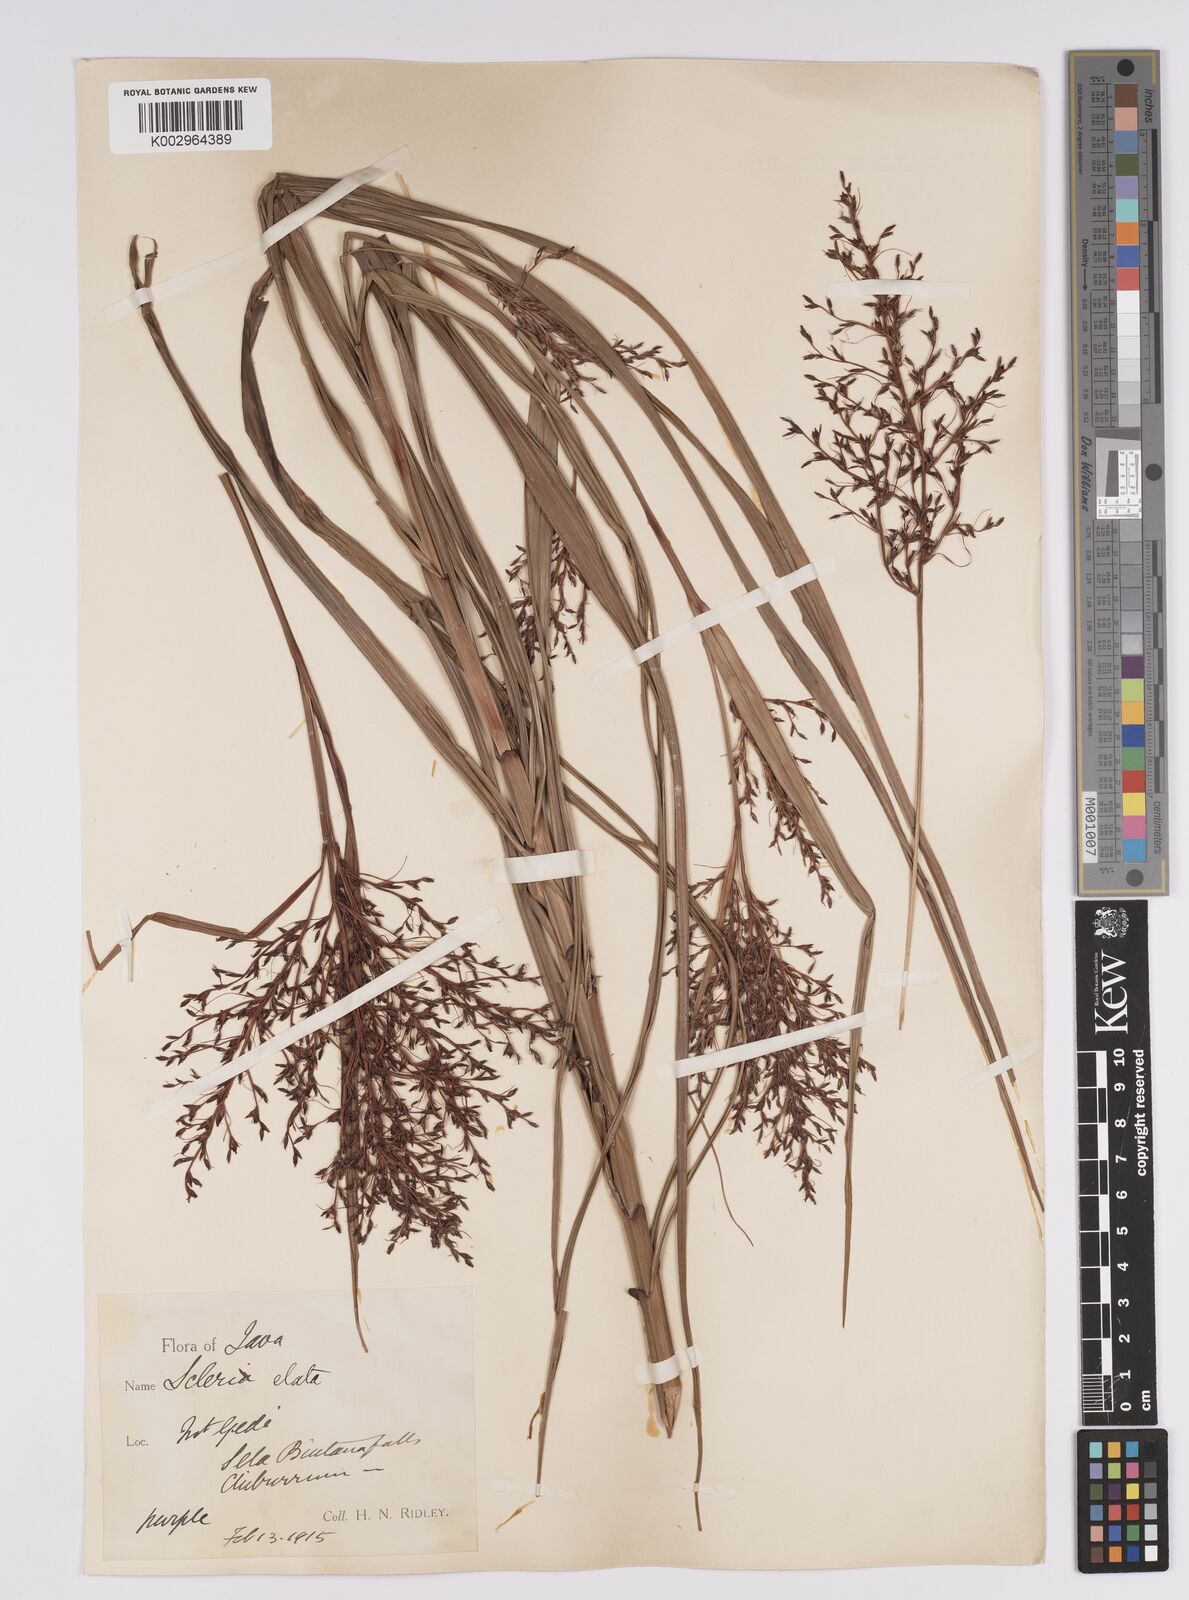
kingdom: Plantae
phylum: Tracheophyta
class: Liliopsida
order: Poales
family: Cyperaceae
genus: Scleria
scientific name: Scleria terrestris
